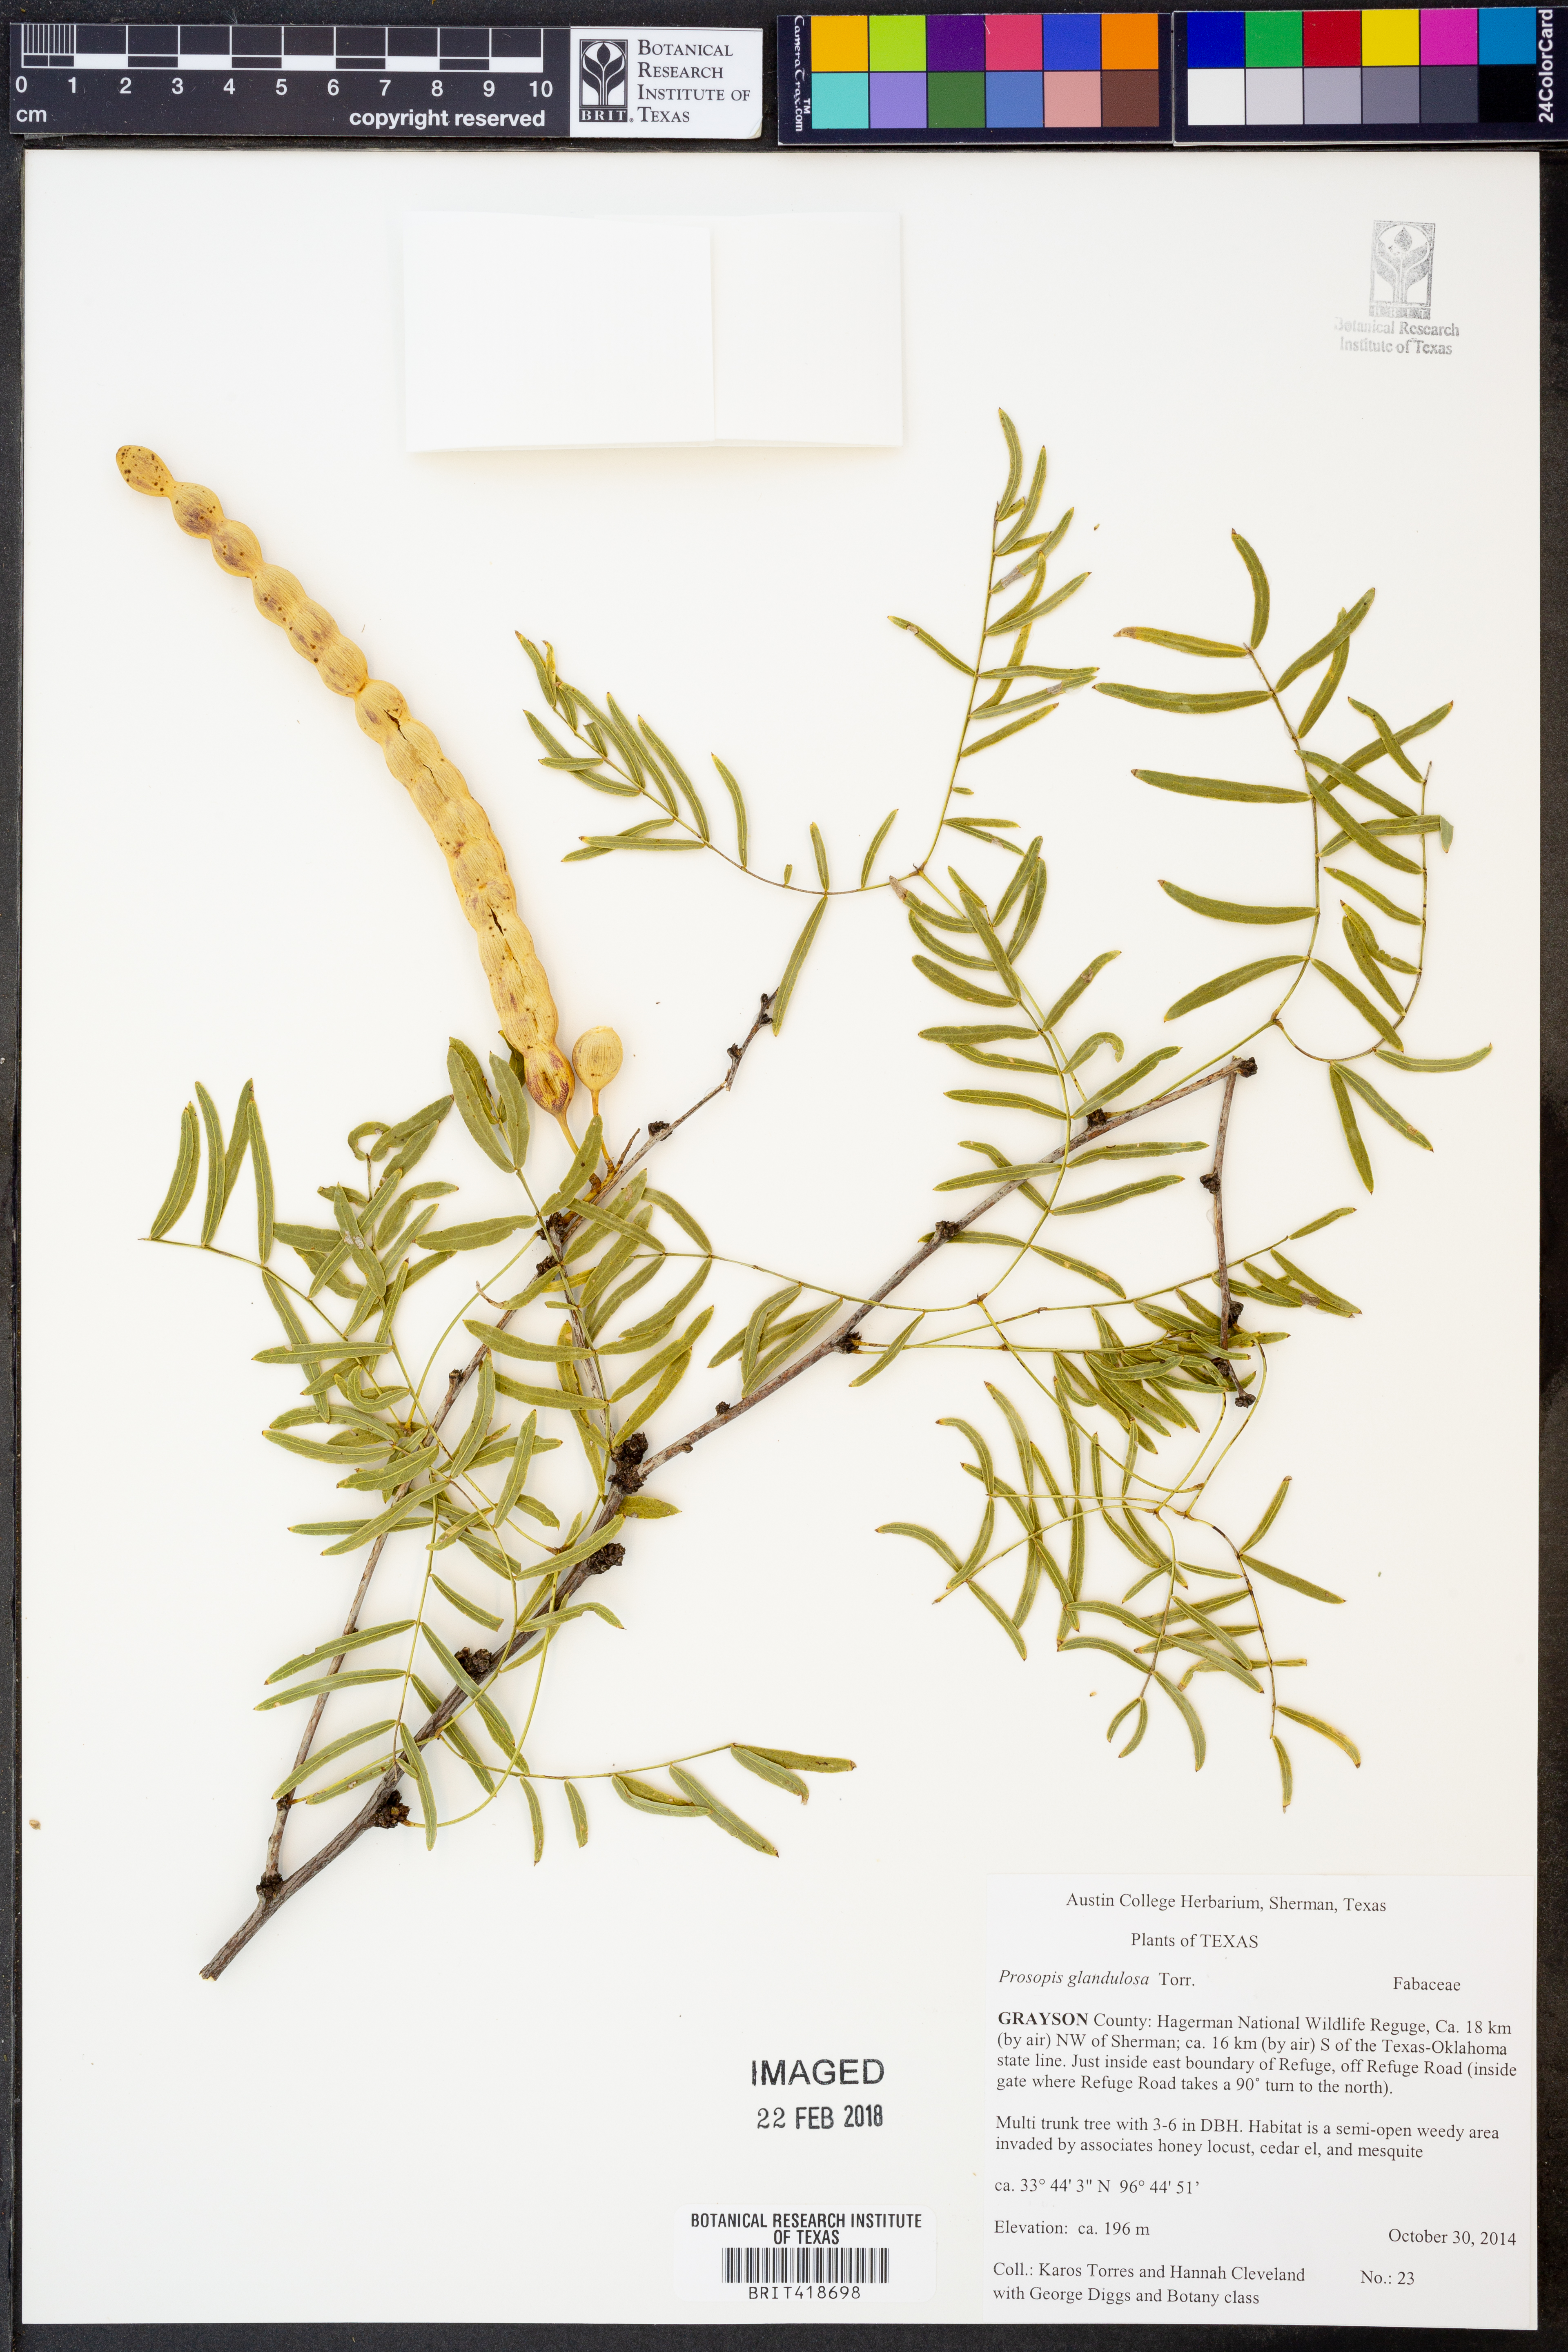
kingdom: Plantae
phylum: Tracheophyta
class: Magnoliopsida
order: Fabales
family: Fabaceae
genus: Prosopis
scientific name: Prosopis glandulosa
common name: Honey mesquite
